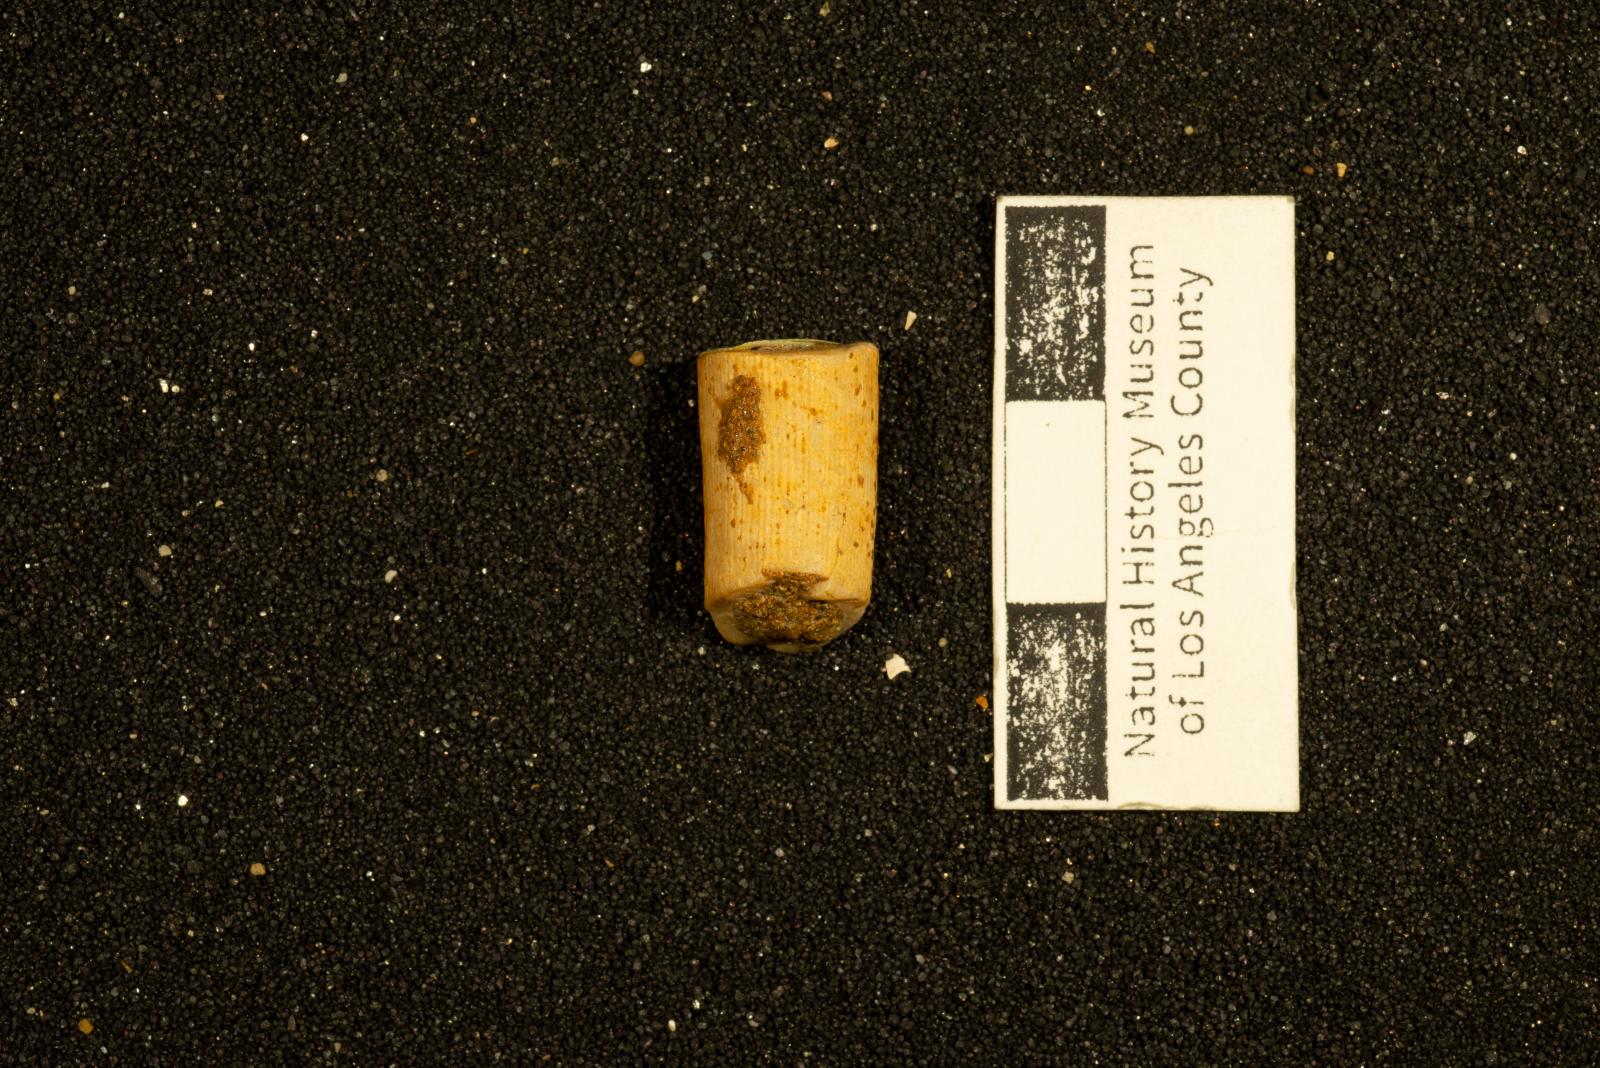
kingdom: Animalia
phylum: Mollusca
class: Bivalvia
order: Ostreida
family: Gryphaeidae
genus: Amphidonte
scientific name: Amphidonte Exogyra parasitica
